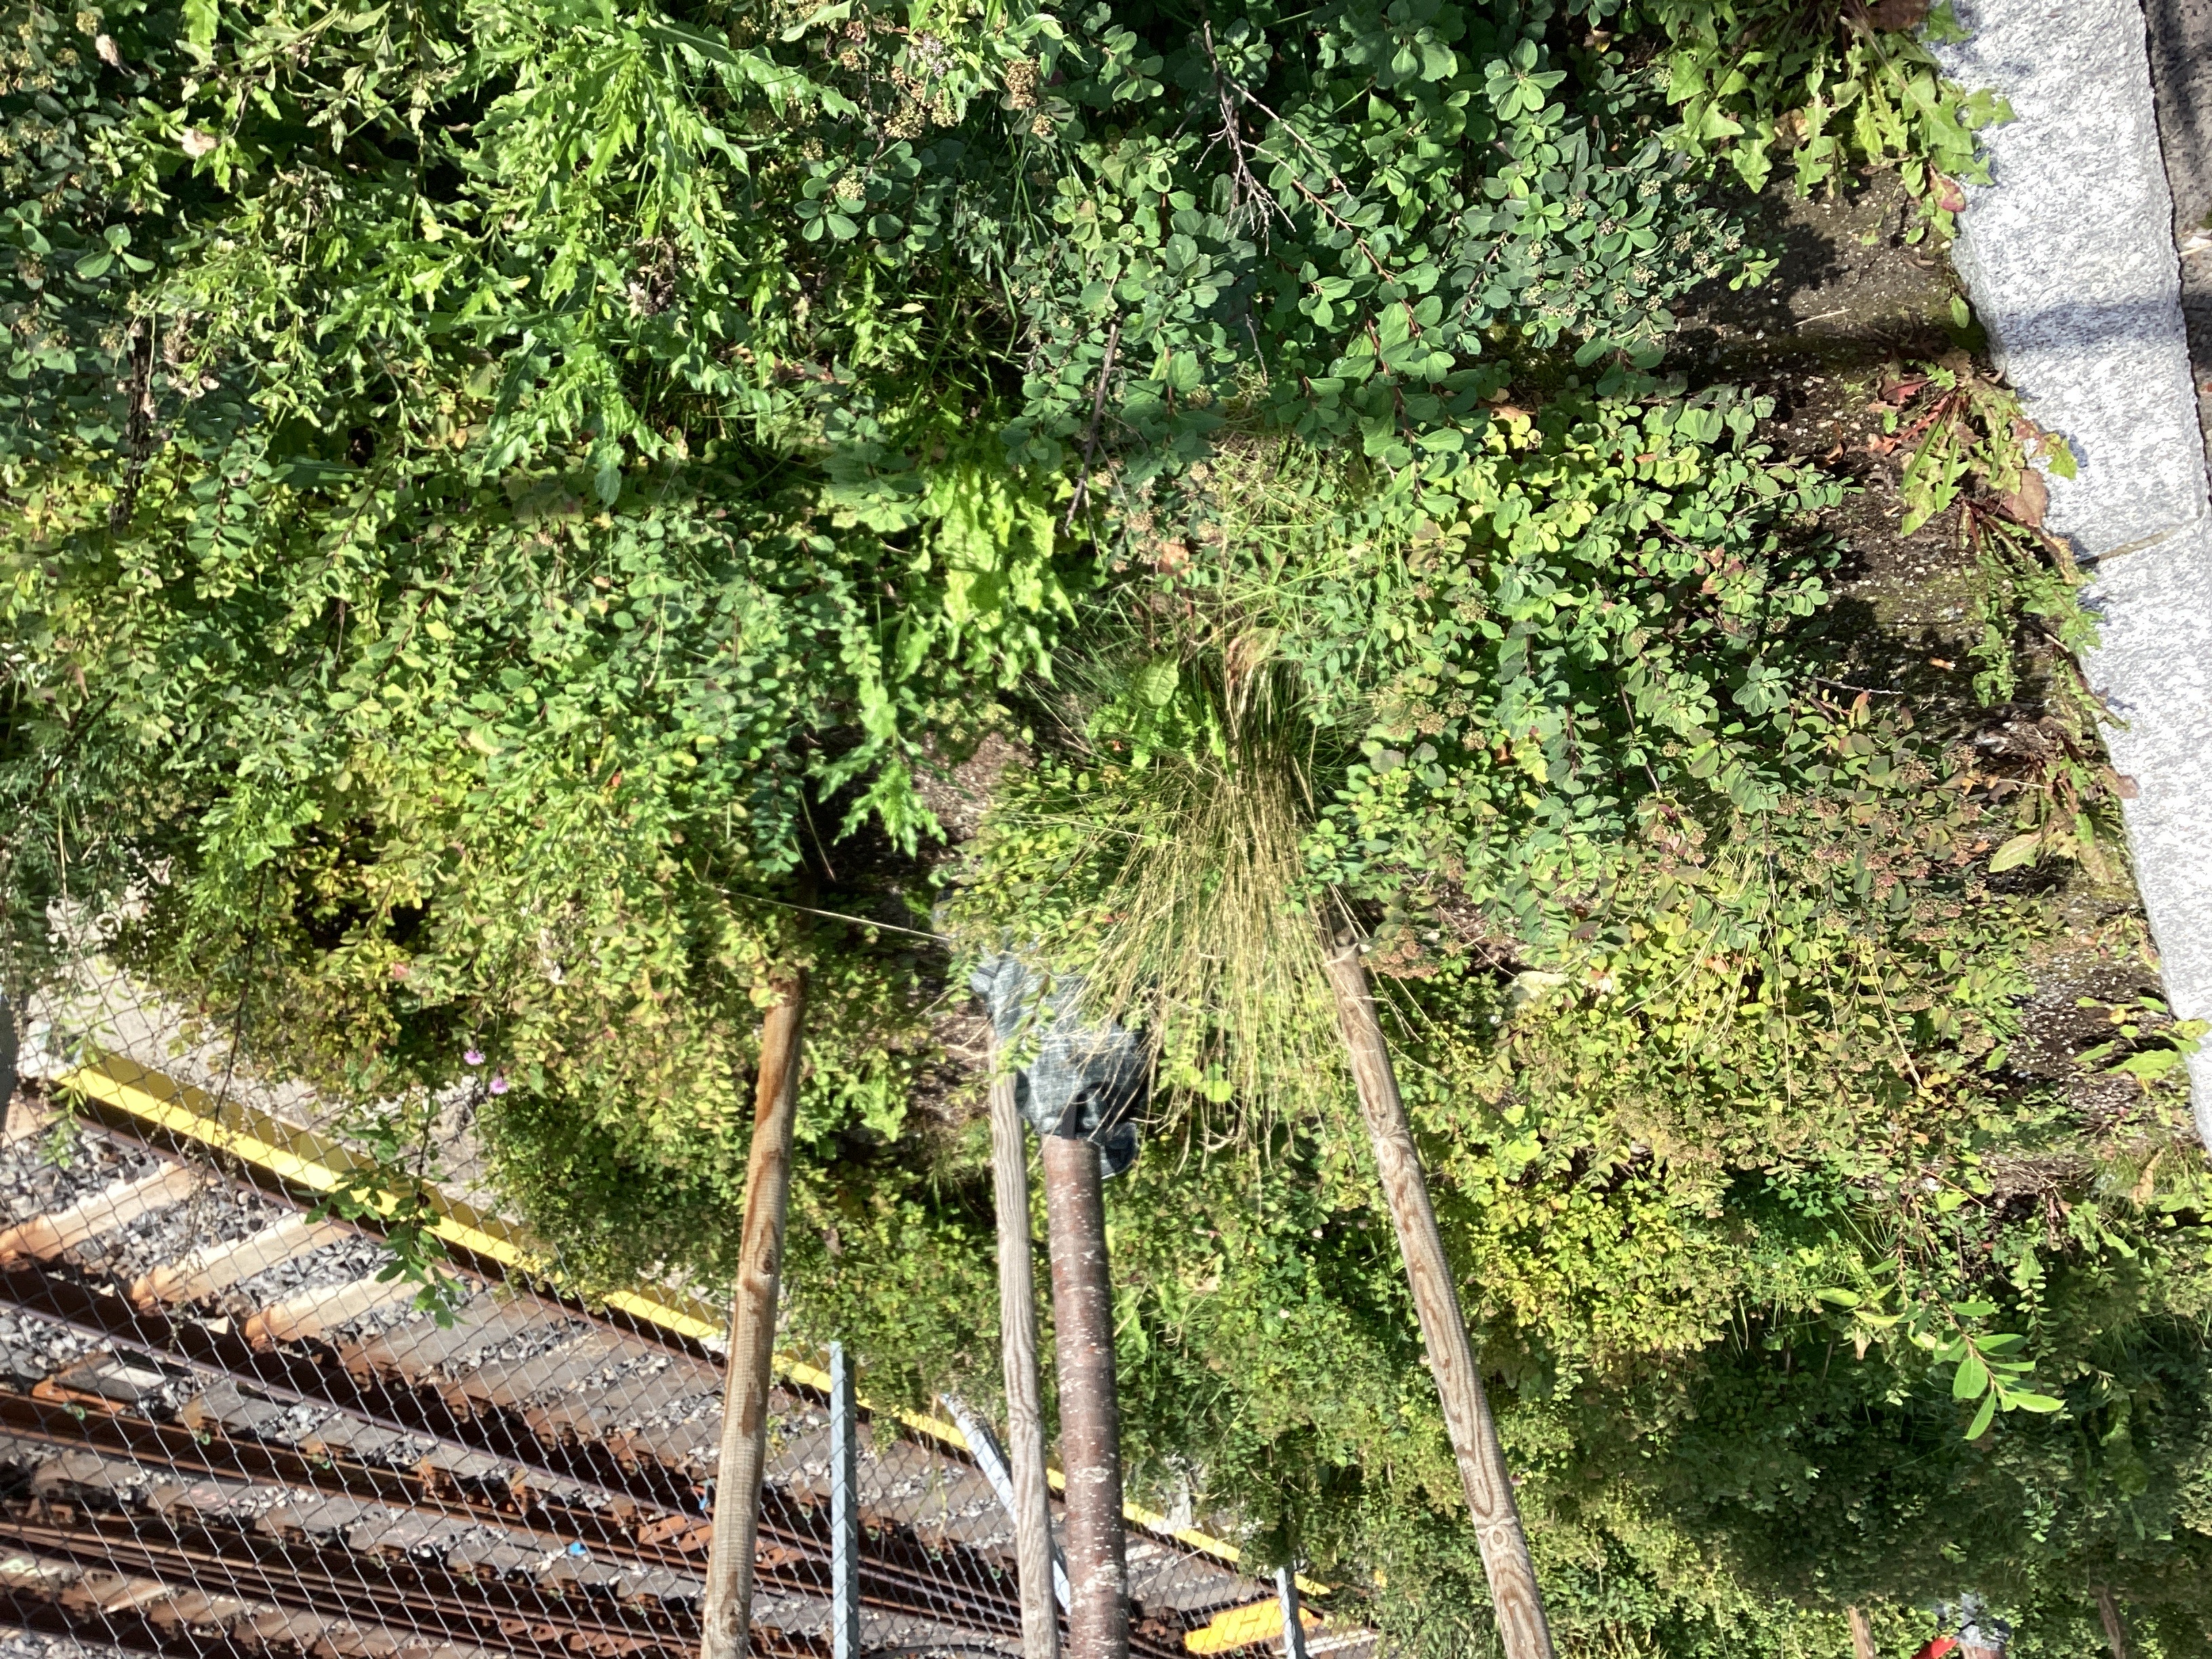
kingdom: Plantae
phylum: Tracheophyta
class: Magnoliopsida
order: Rosales
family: Rosaceae
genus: Spiraea
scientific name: Spiraea betulifolia
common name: bjørkebladspirea
